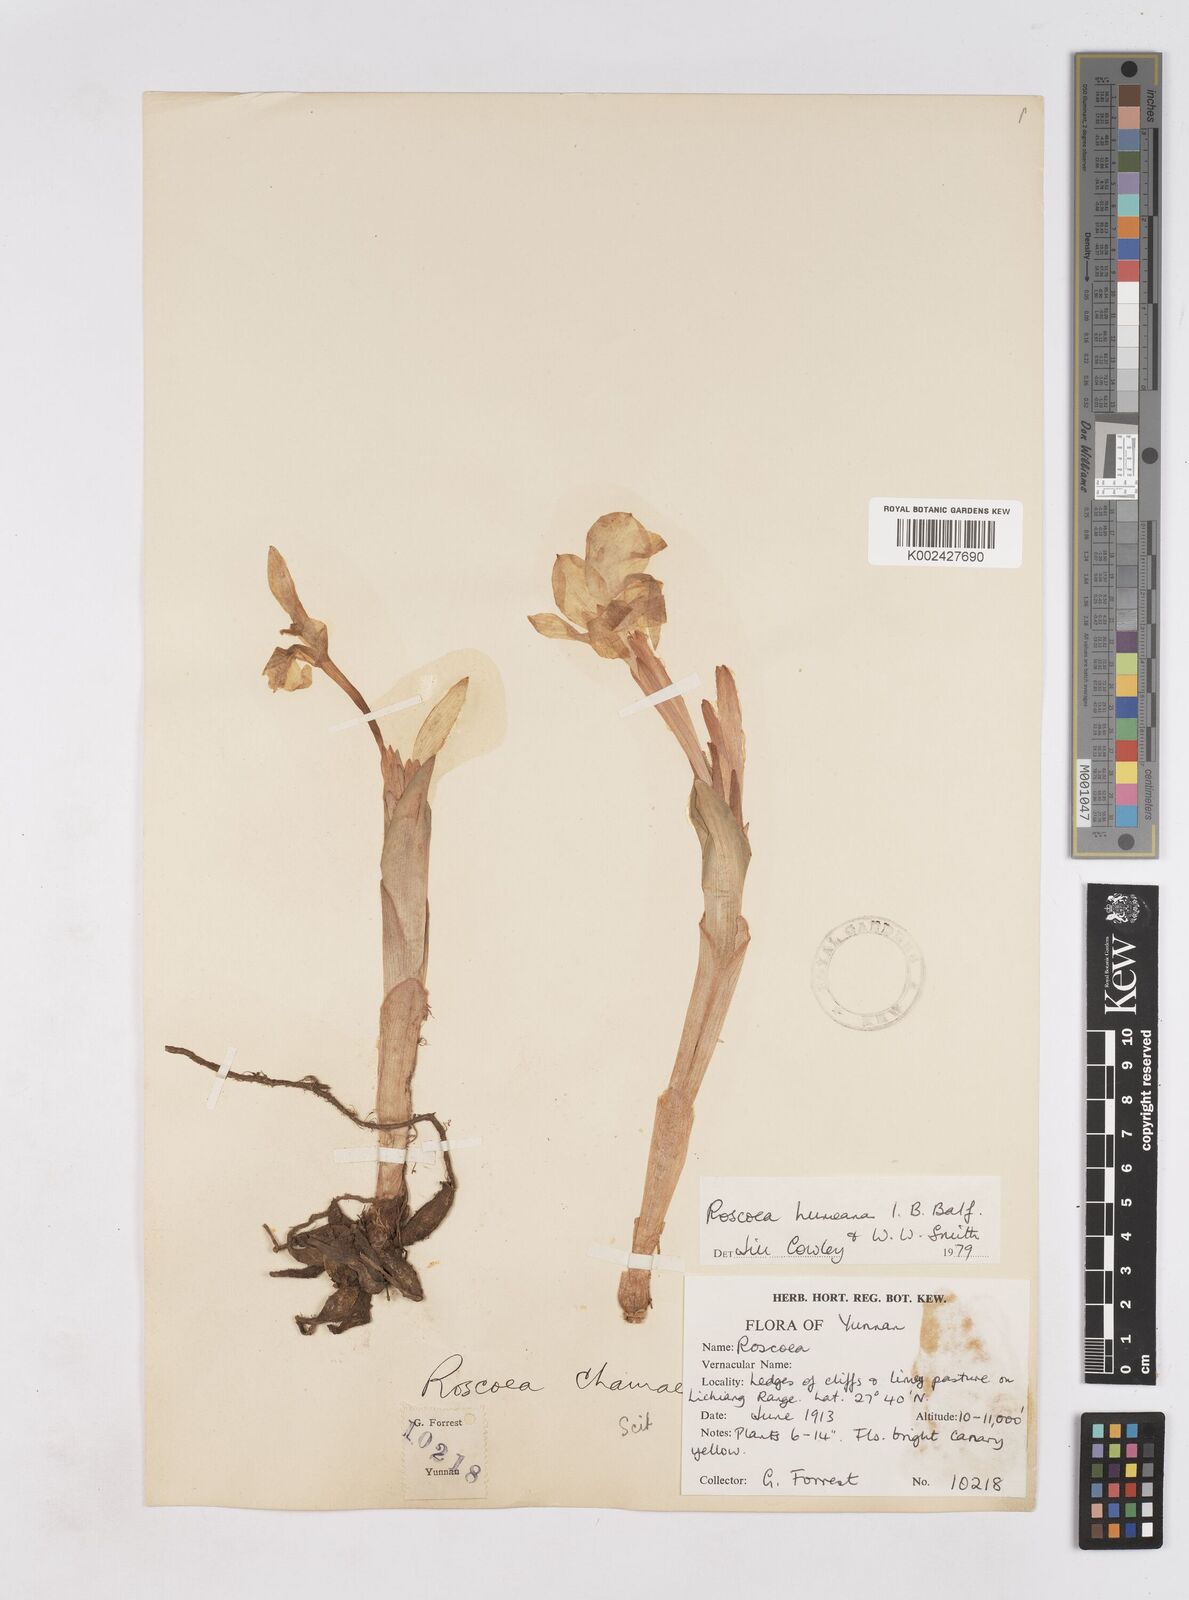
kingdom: Plantae
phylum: Tracheophyta
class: Liliopsida
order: Zingiberales
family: Zingiberaceae
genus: Roscoea
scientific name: Roscoea humeana
